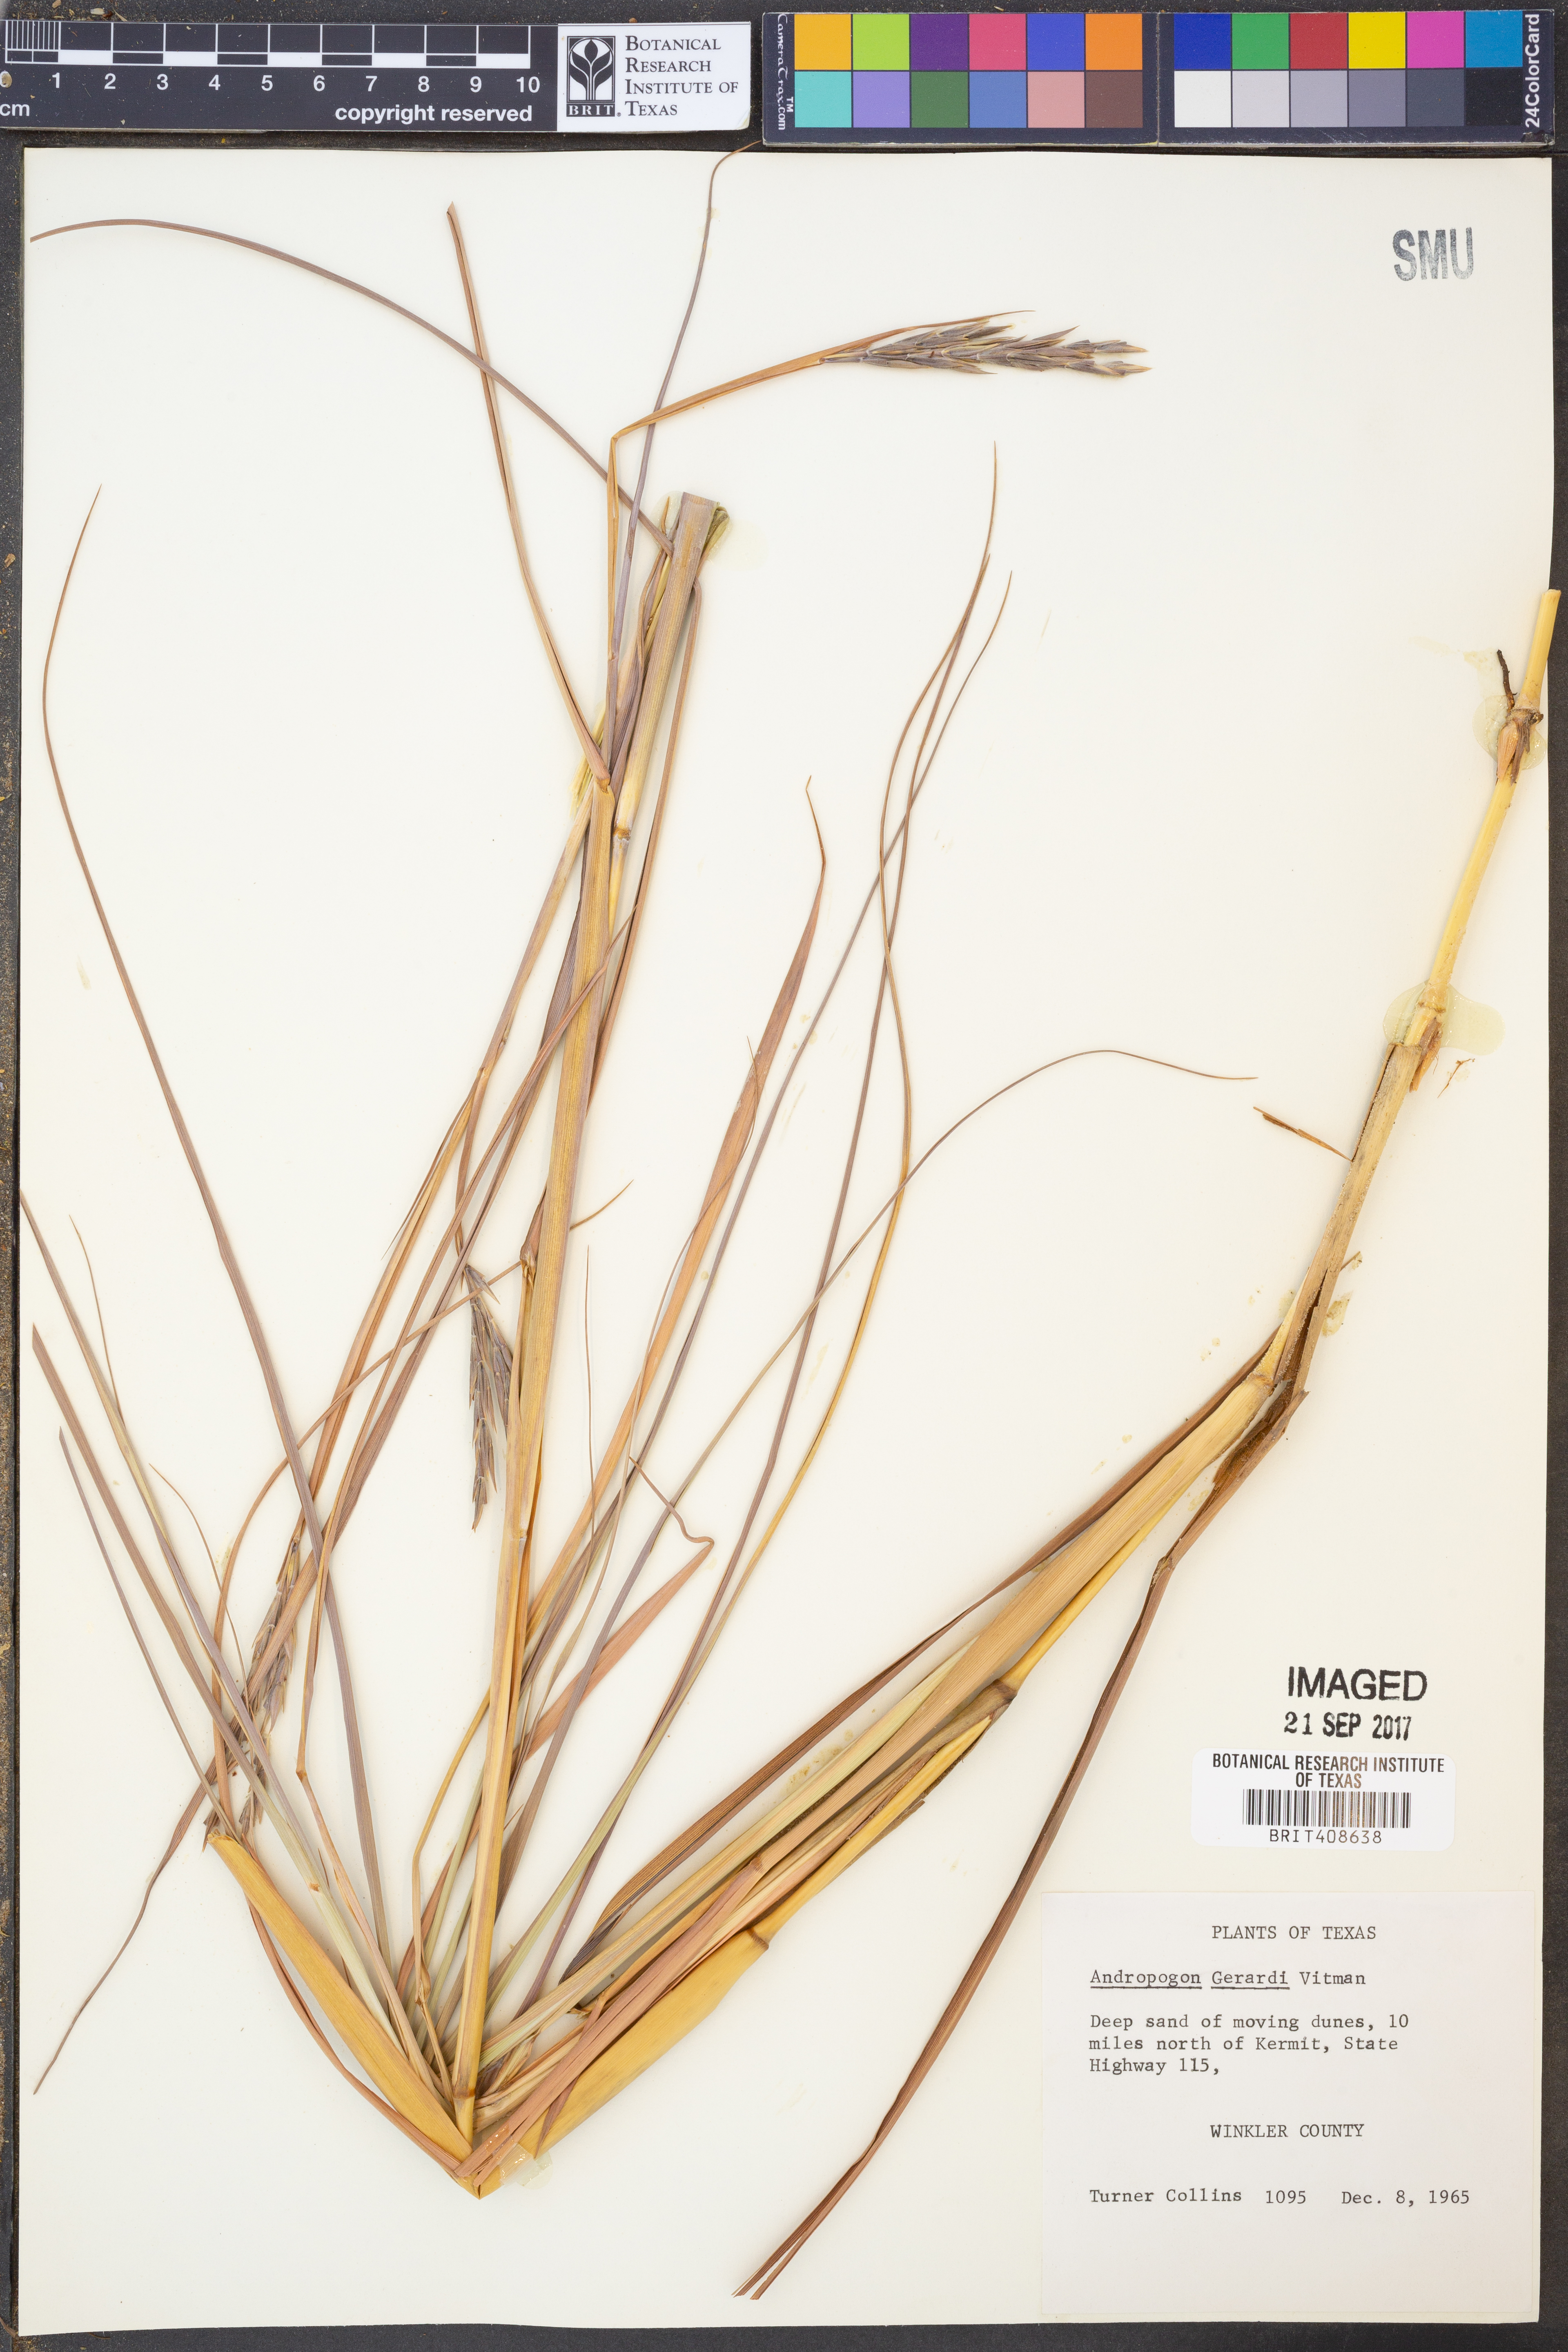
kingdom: Plantae
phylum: Tracheophyta
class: Liliopsida
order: Poales
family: Poaceae
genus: Andropogon
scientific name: Andropogon gerardi
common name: Big bluestem
